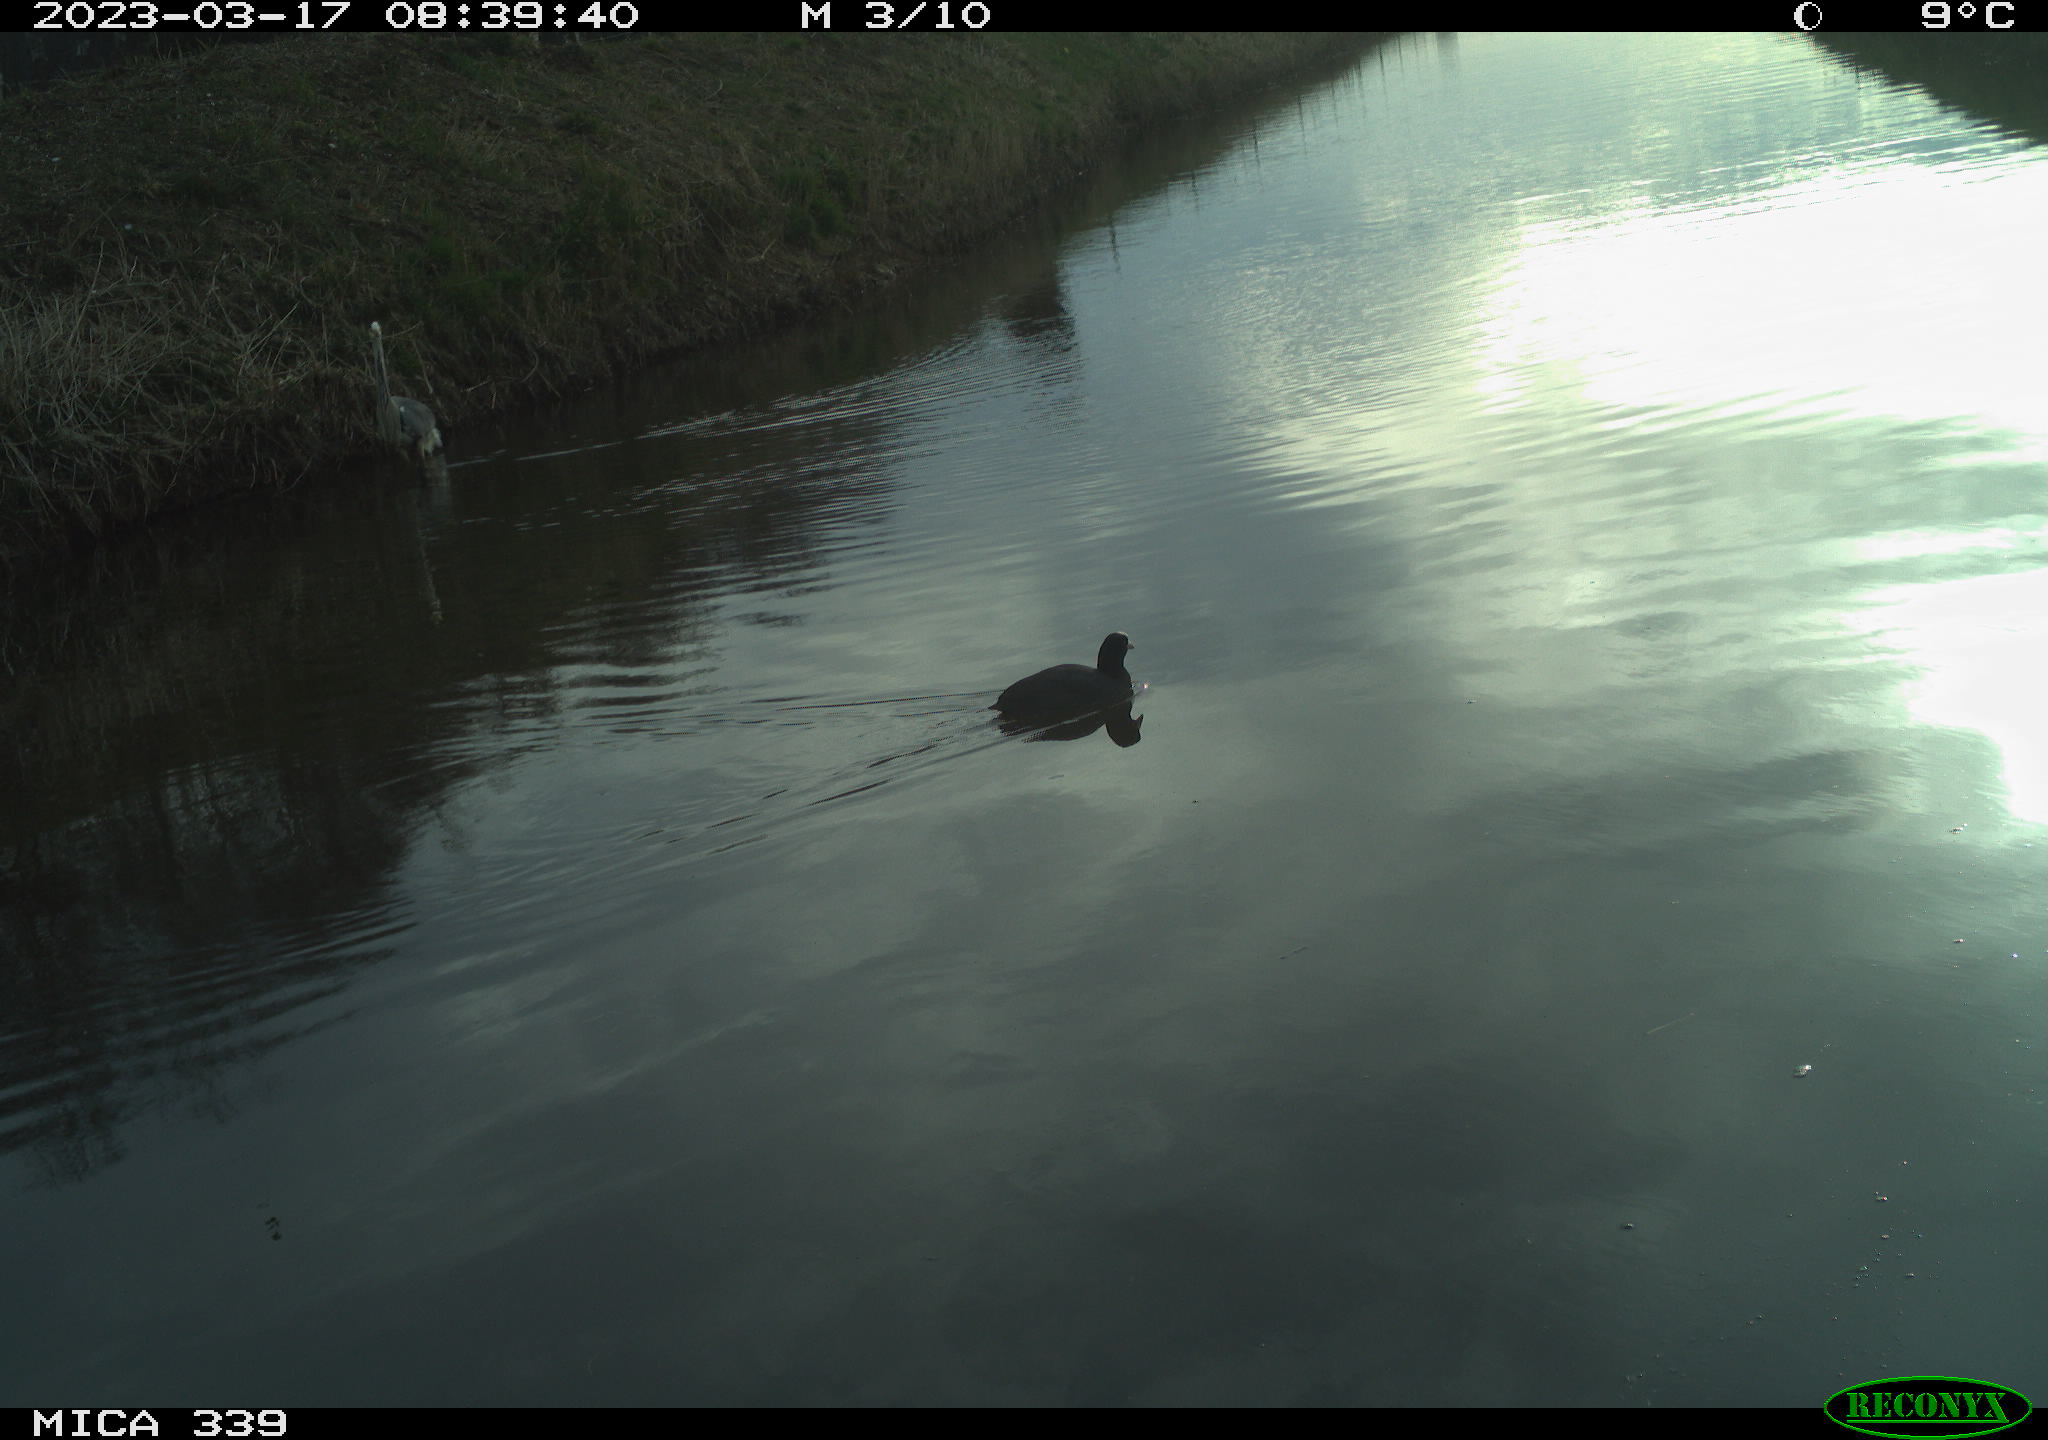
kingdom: Animalia
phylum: Chordata
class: Aves
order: Gruiformes
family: Rallidae
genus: Fulica
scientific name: Fulica atra
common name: Eurasian coot
